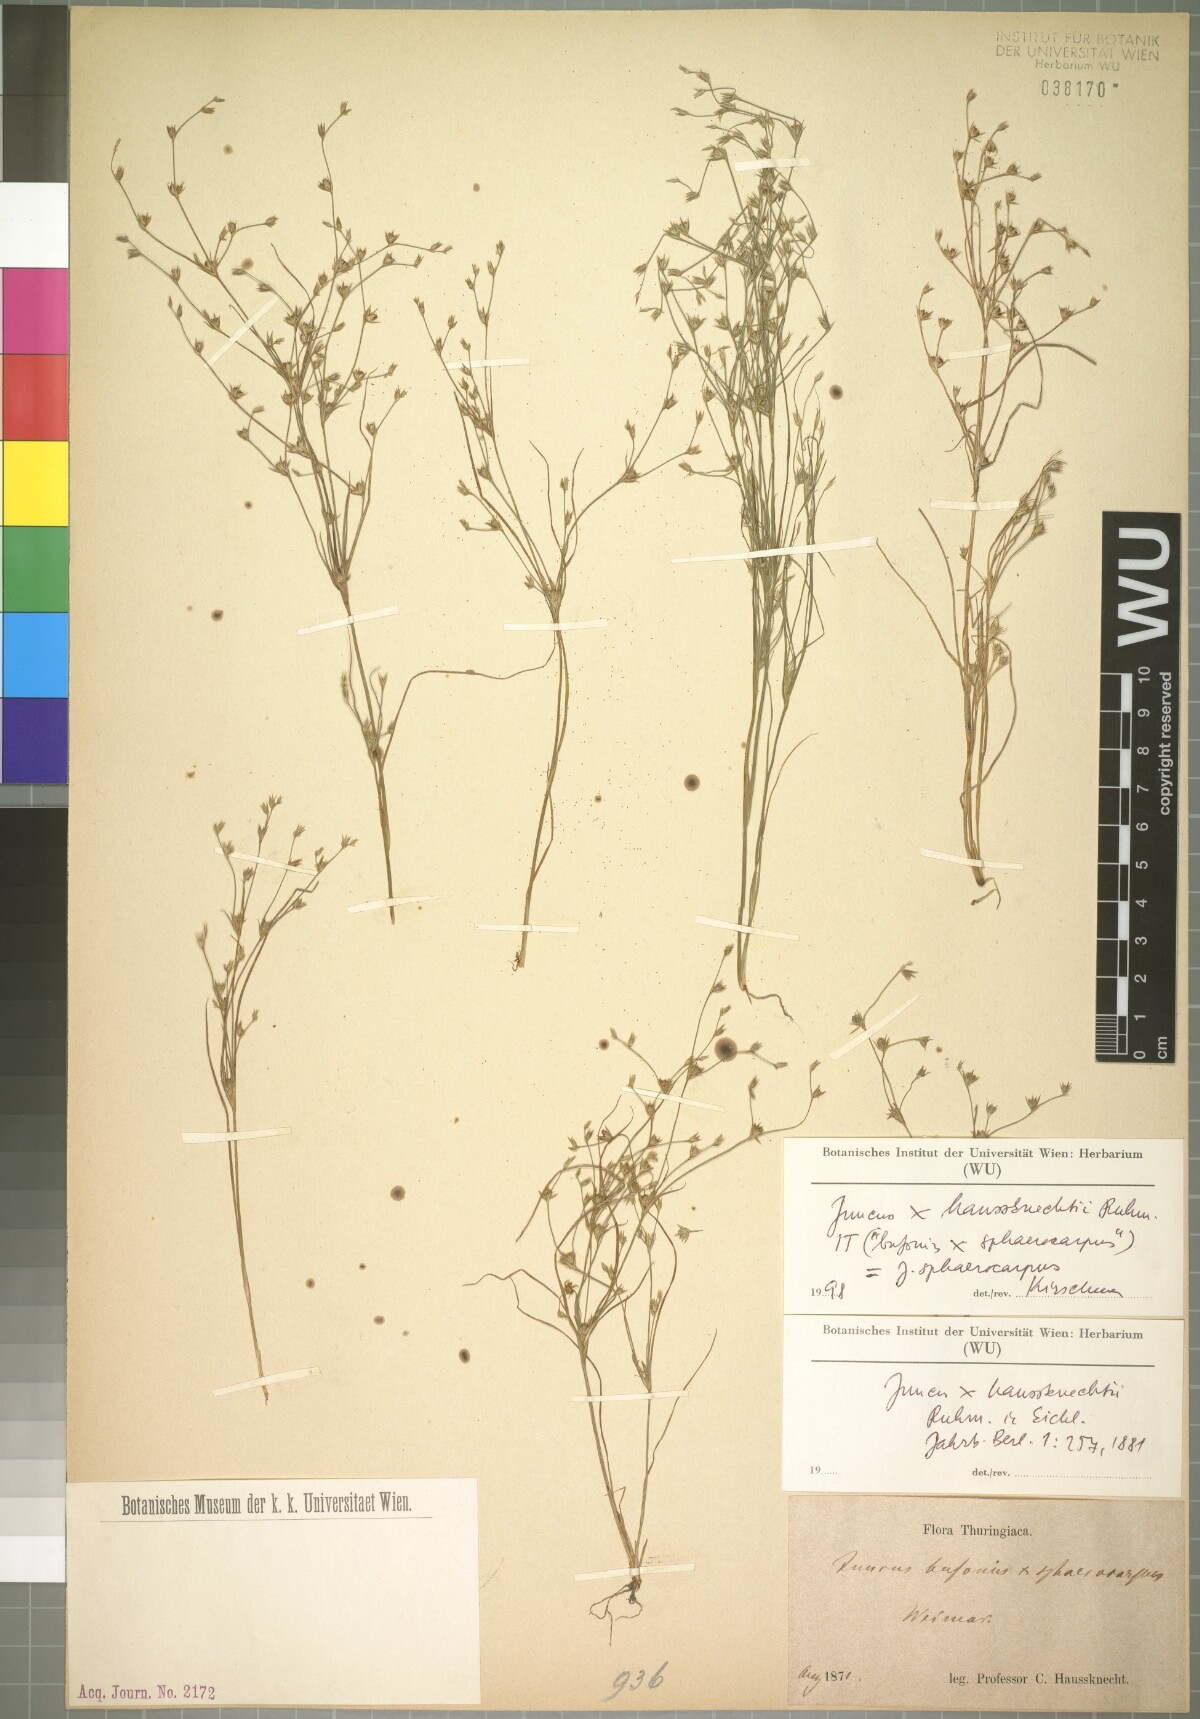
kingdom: Plantae
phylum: Tracheophyta
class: Liliopsida
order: Poales
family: Juncaceae
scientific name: Juncaceae
